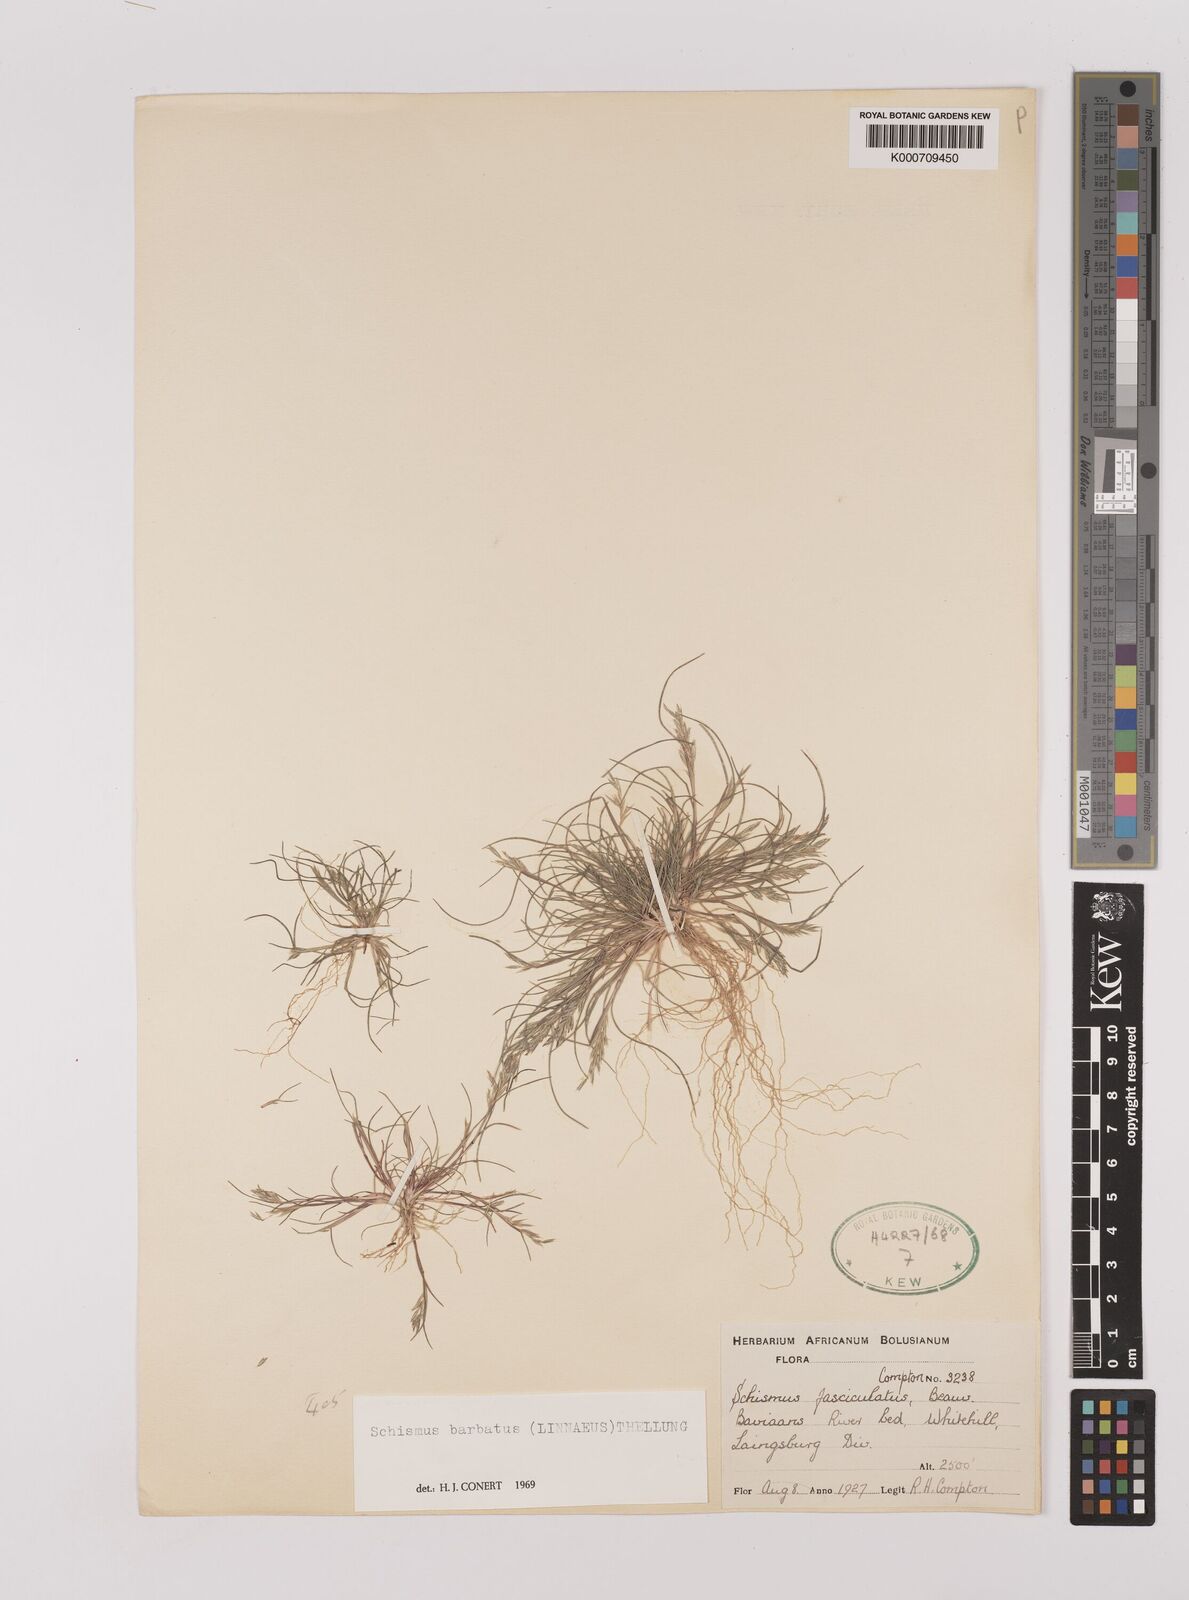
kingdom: Plantae
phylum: Tracheophyta
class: Liliopsida
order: Poales
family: Poaceae
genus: Schismus
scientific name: Schismus barbatus
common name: Kelch-grass
